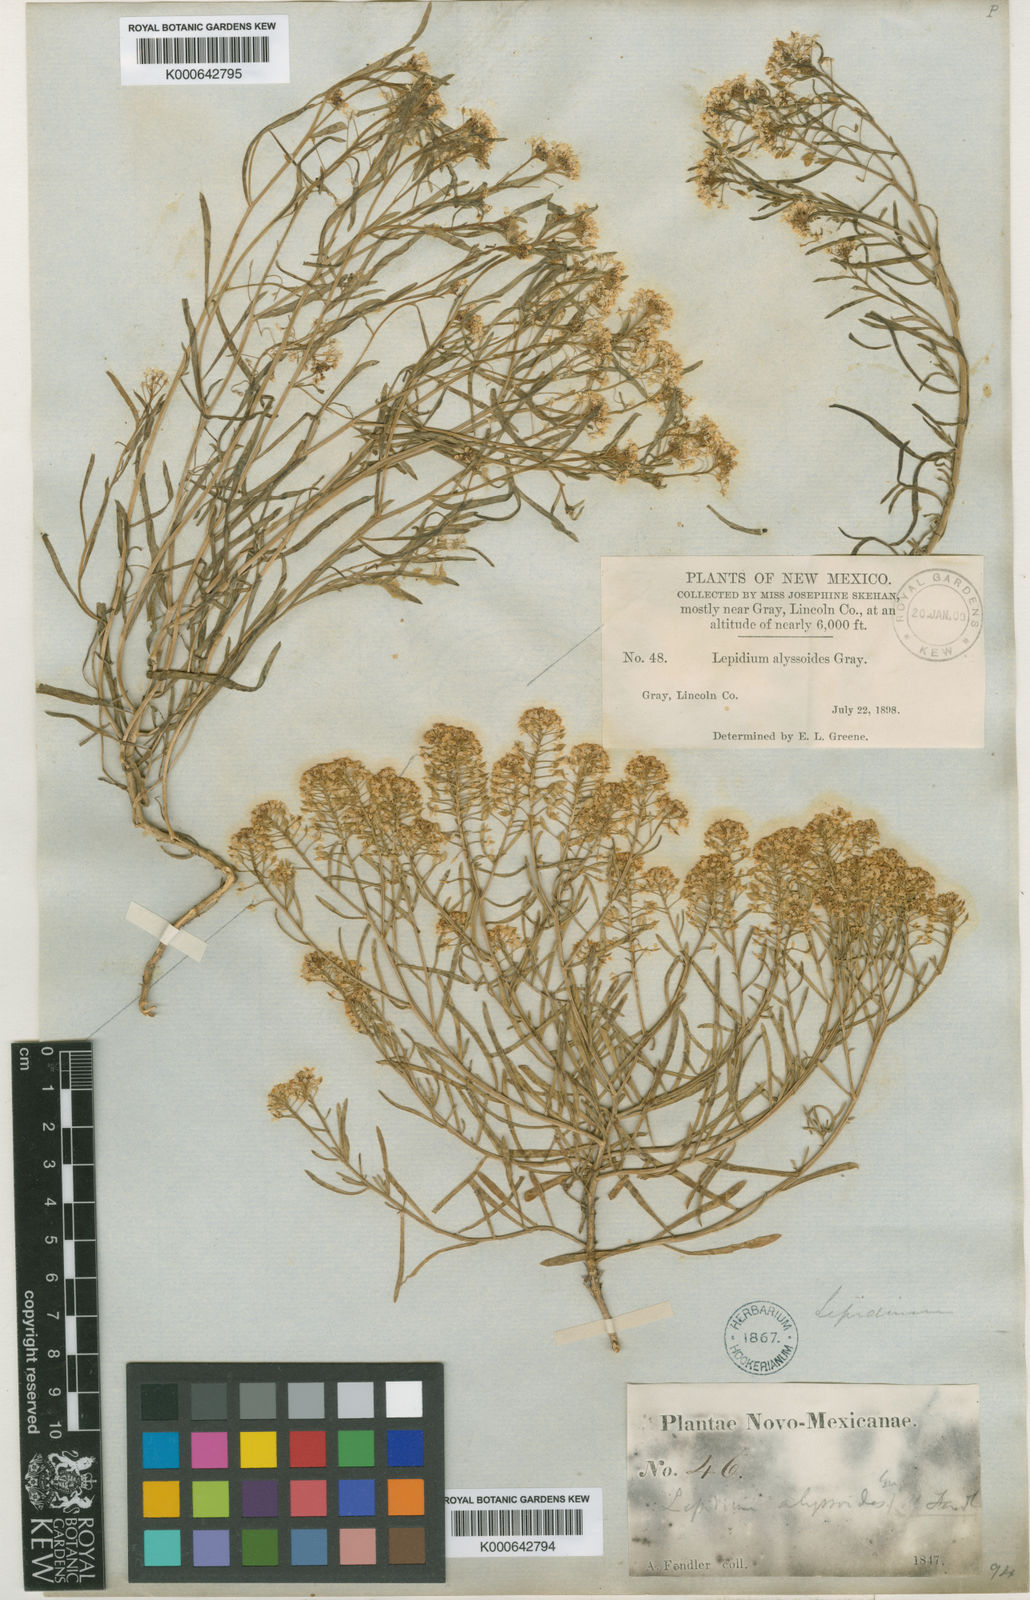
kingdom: Plantae
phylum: Tracheophyta
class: Magnoliopsida
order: Brassicales
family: Brassicaceae
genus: Lepidium
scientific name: Lepidium montanum
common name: Mountain pepperplant
